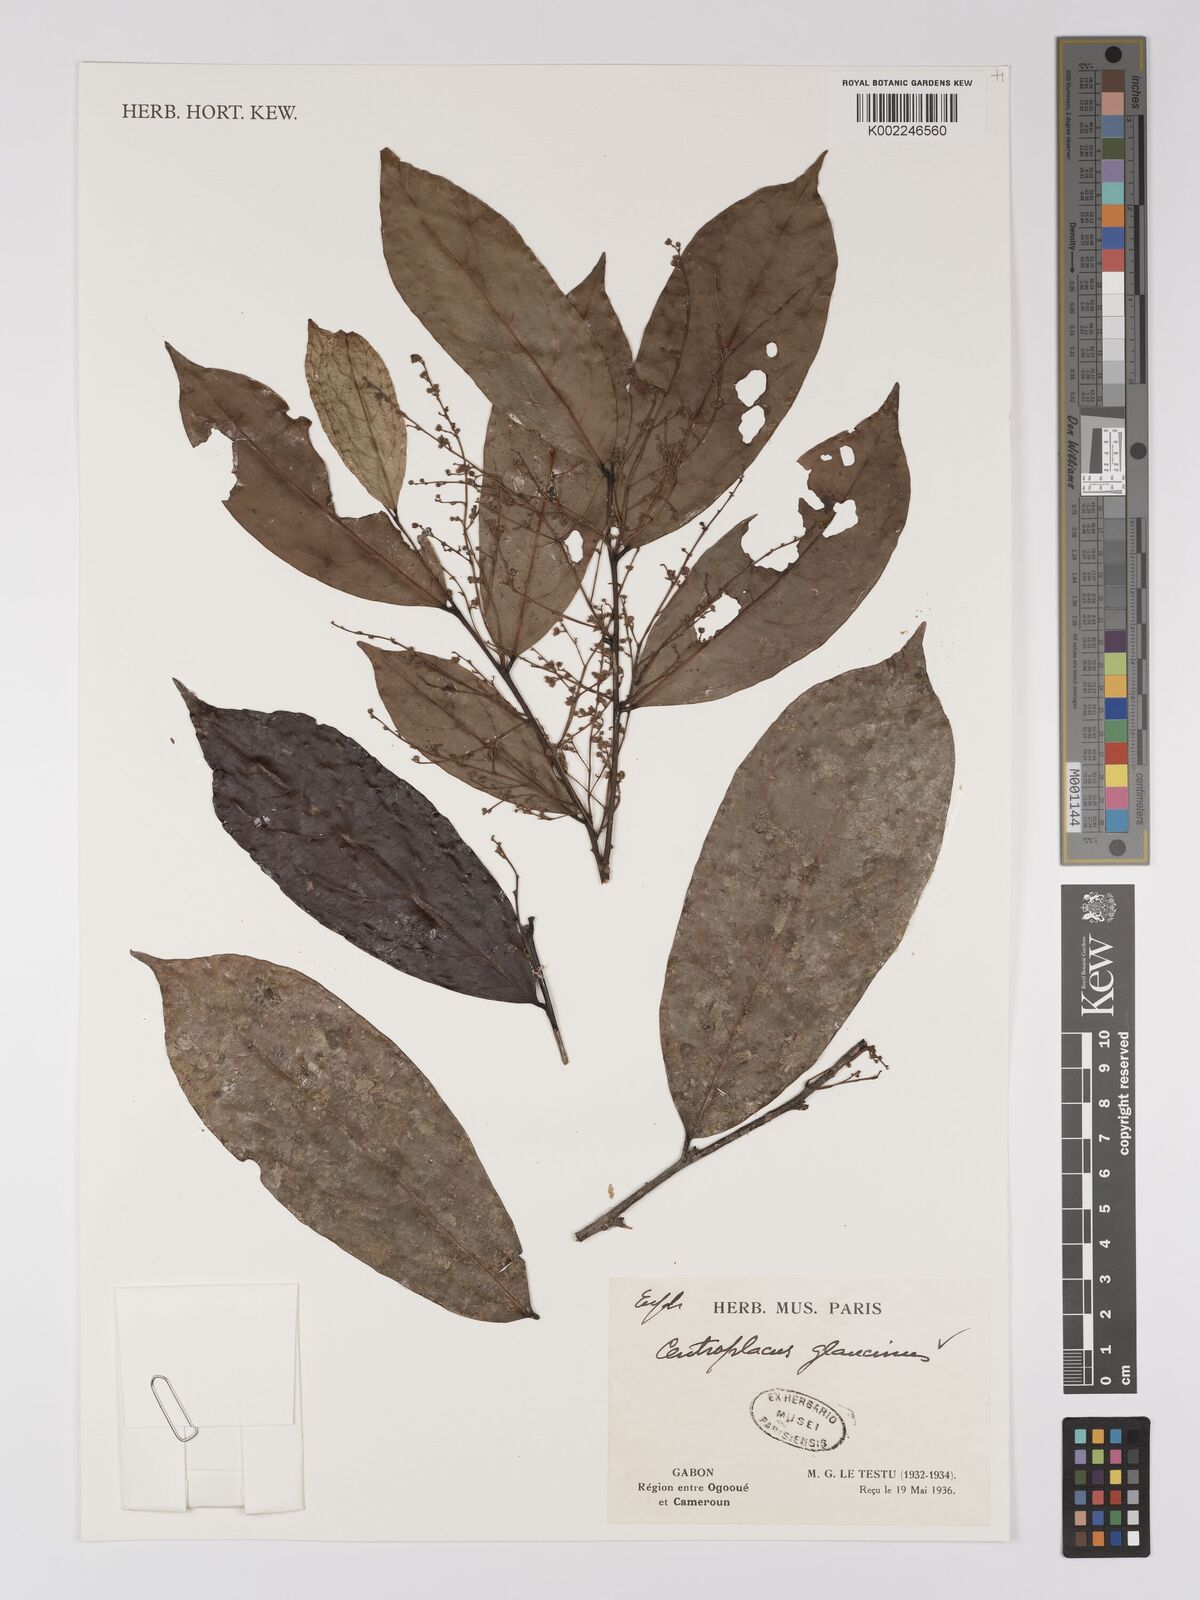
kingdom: Plantae
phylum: Tracheophyta
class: Magnoliopsida
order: Malpighiales
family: Centroplacaceae
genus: Centroplacus
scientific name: Centroplacus glaucinus
